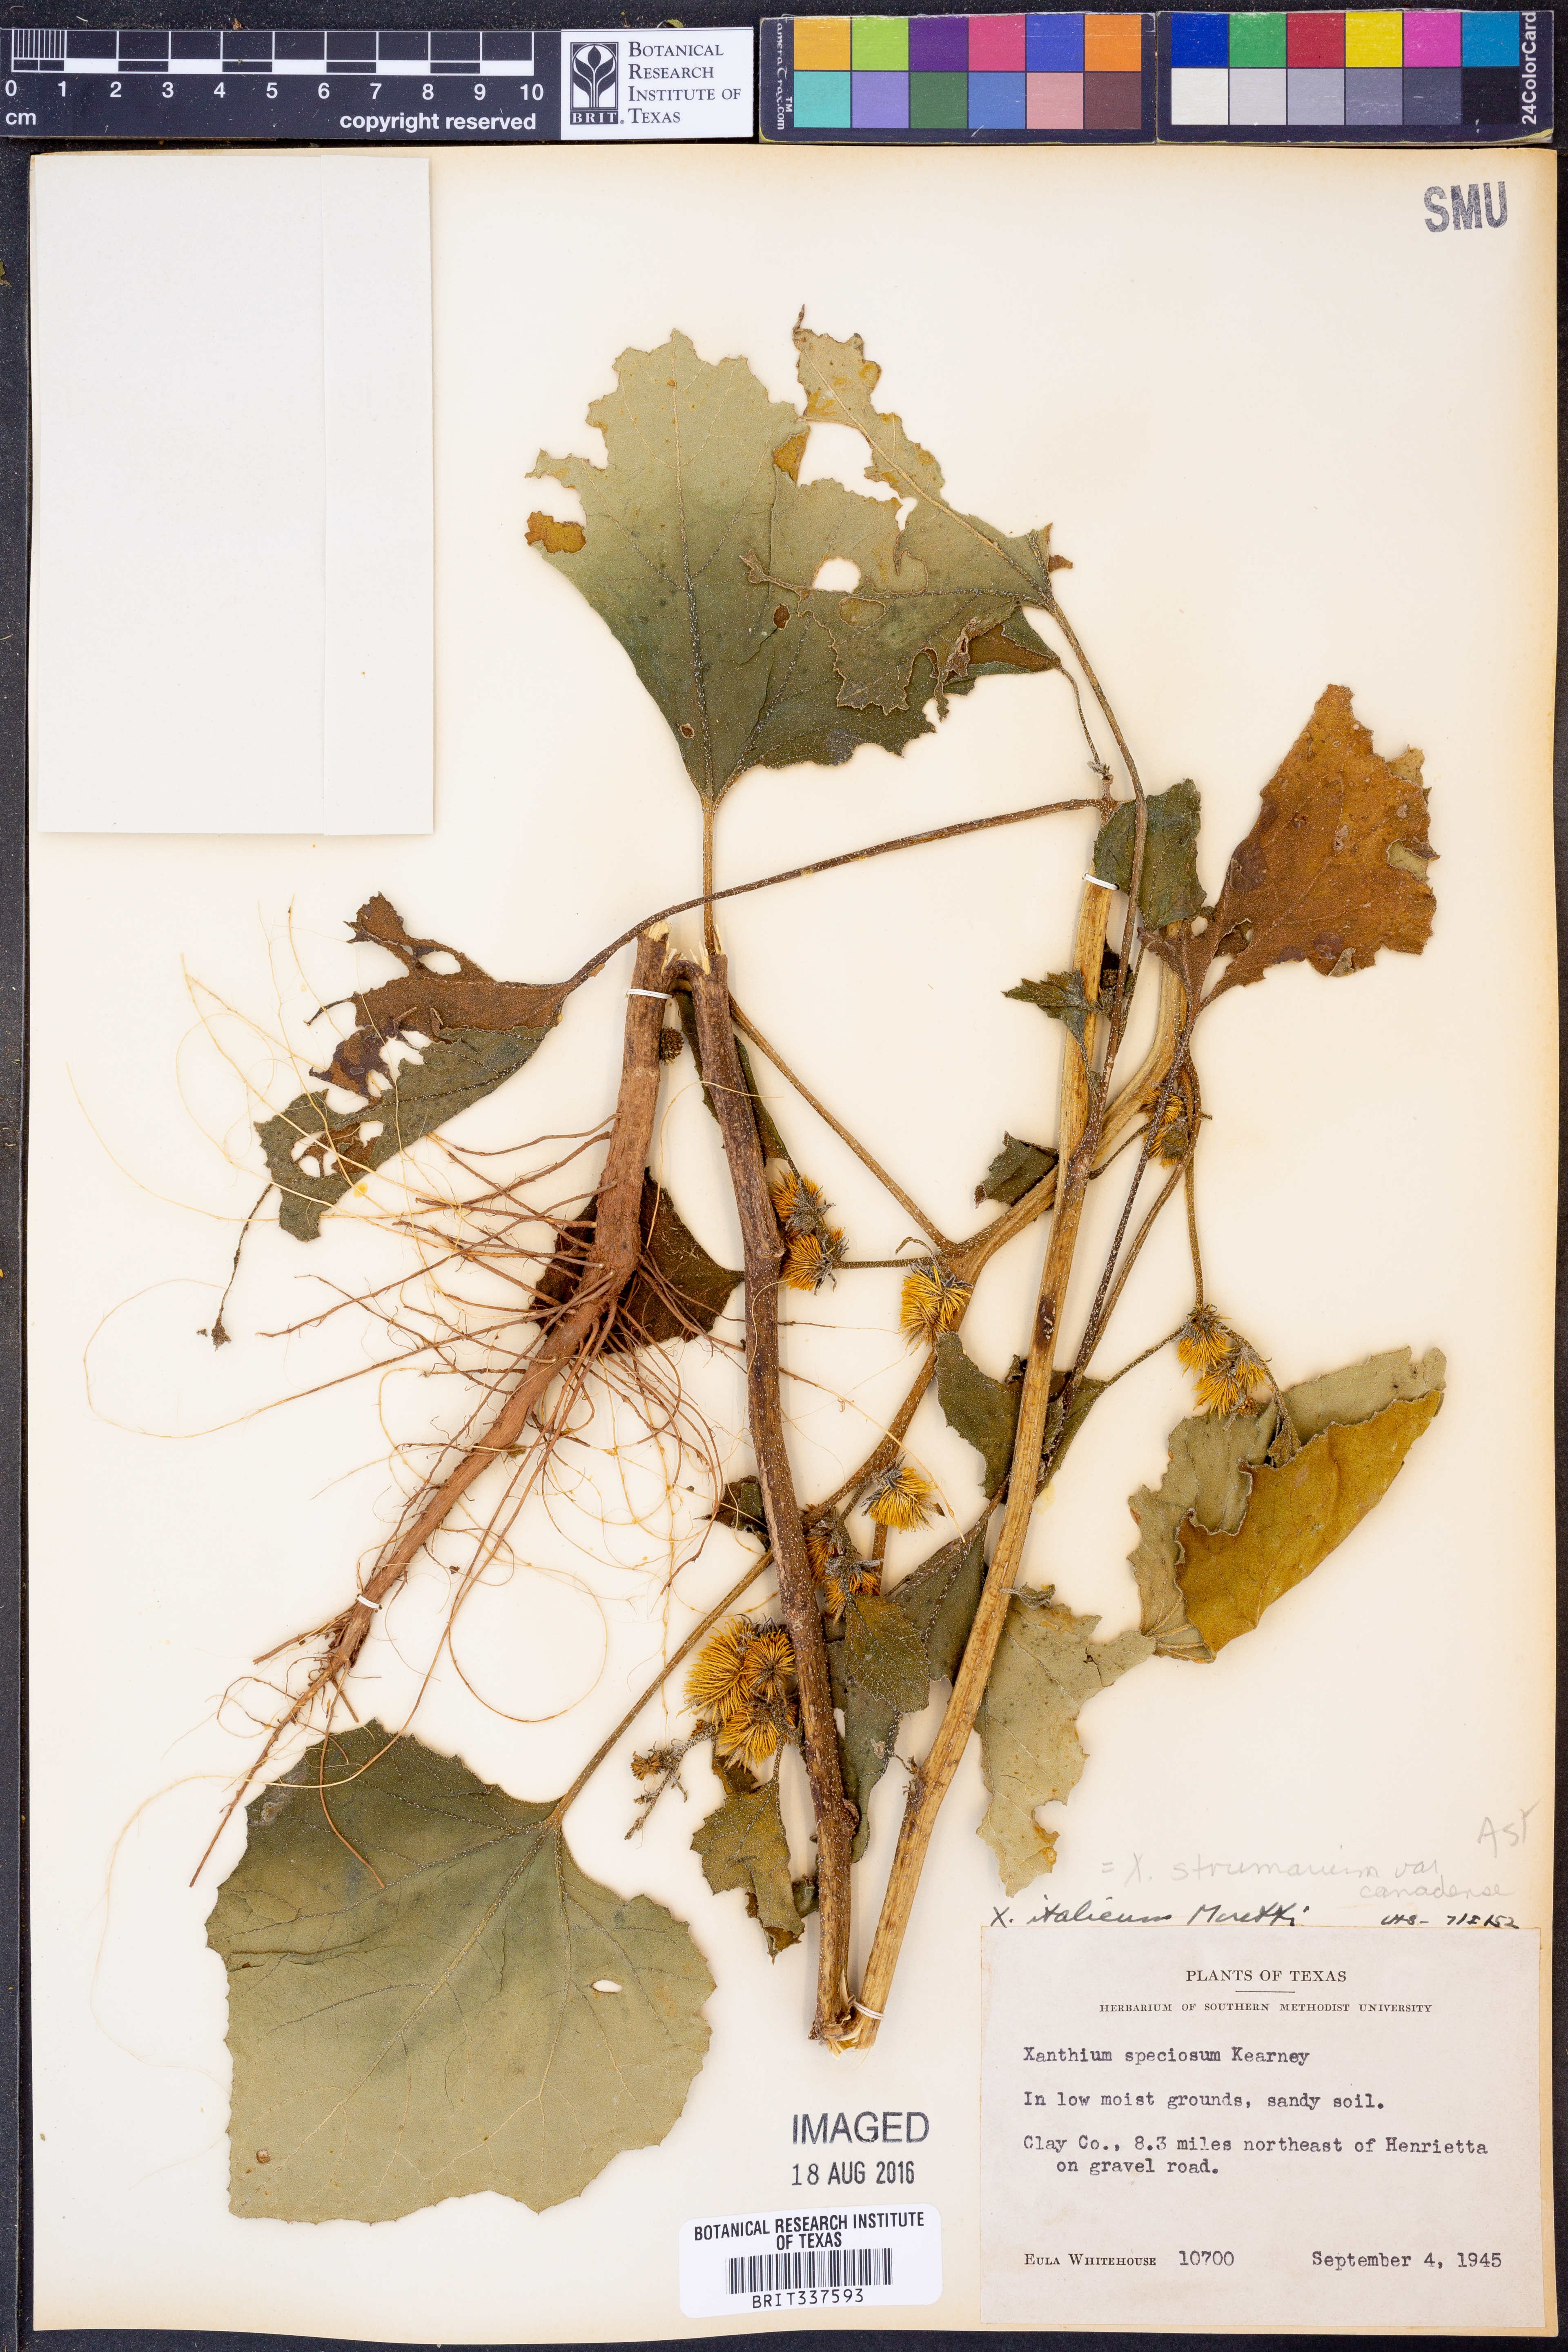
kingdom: Plantae
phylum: Tracheophyta
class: Magnoliopsida
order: Asterales
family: Asteraceae
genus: Xanthium
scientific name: Xanthium orientale
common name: Californian burr
